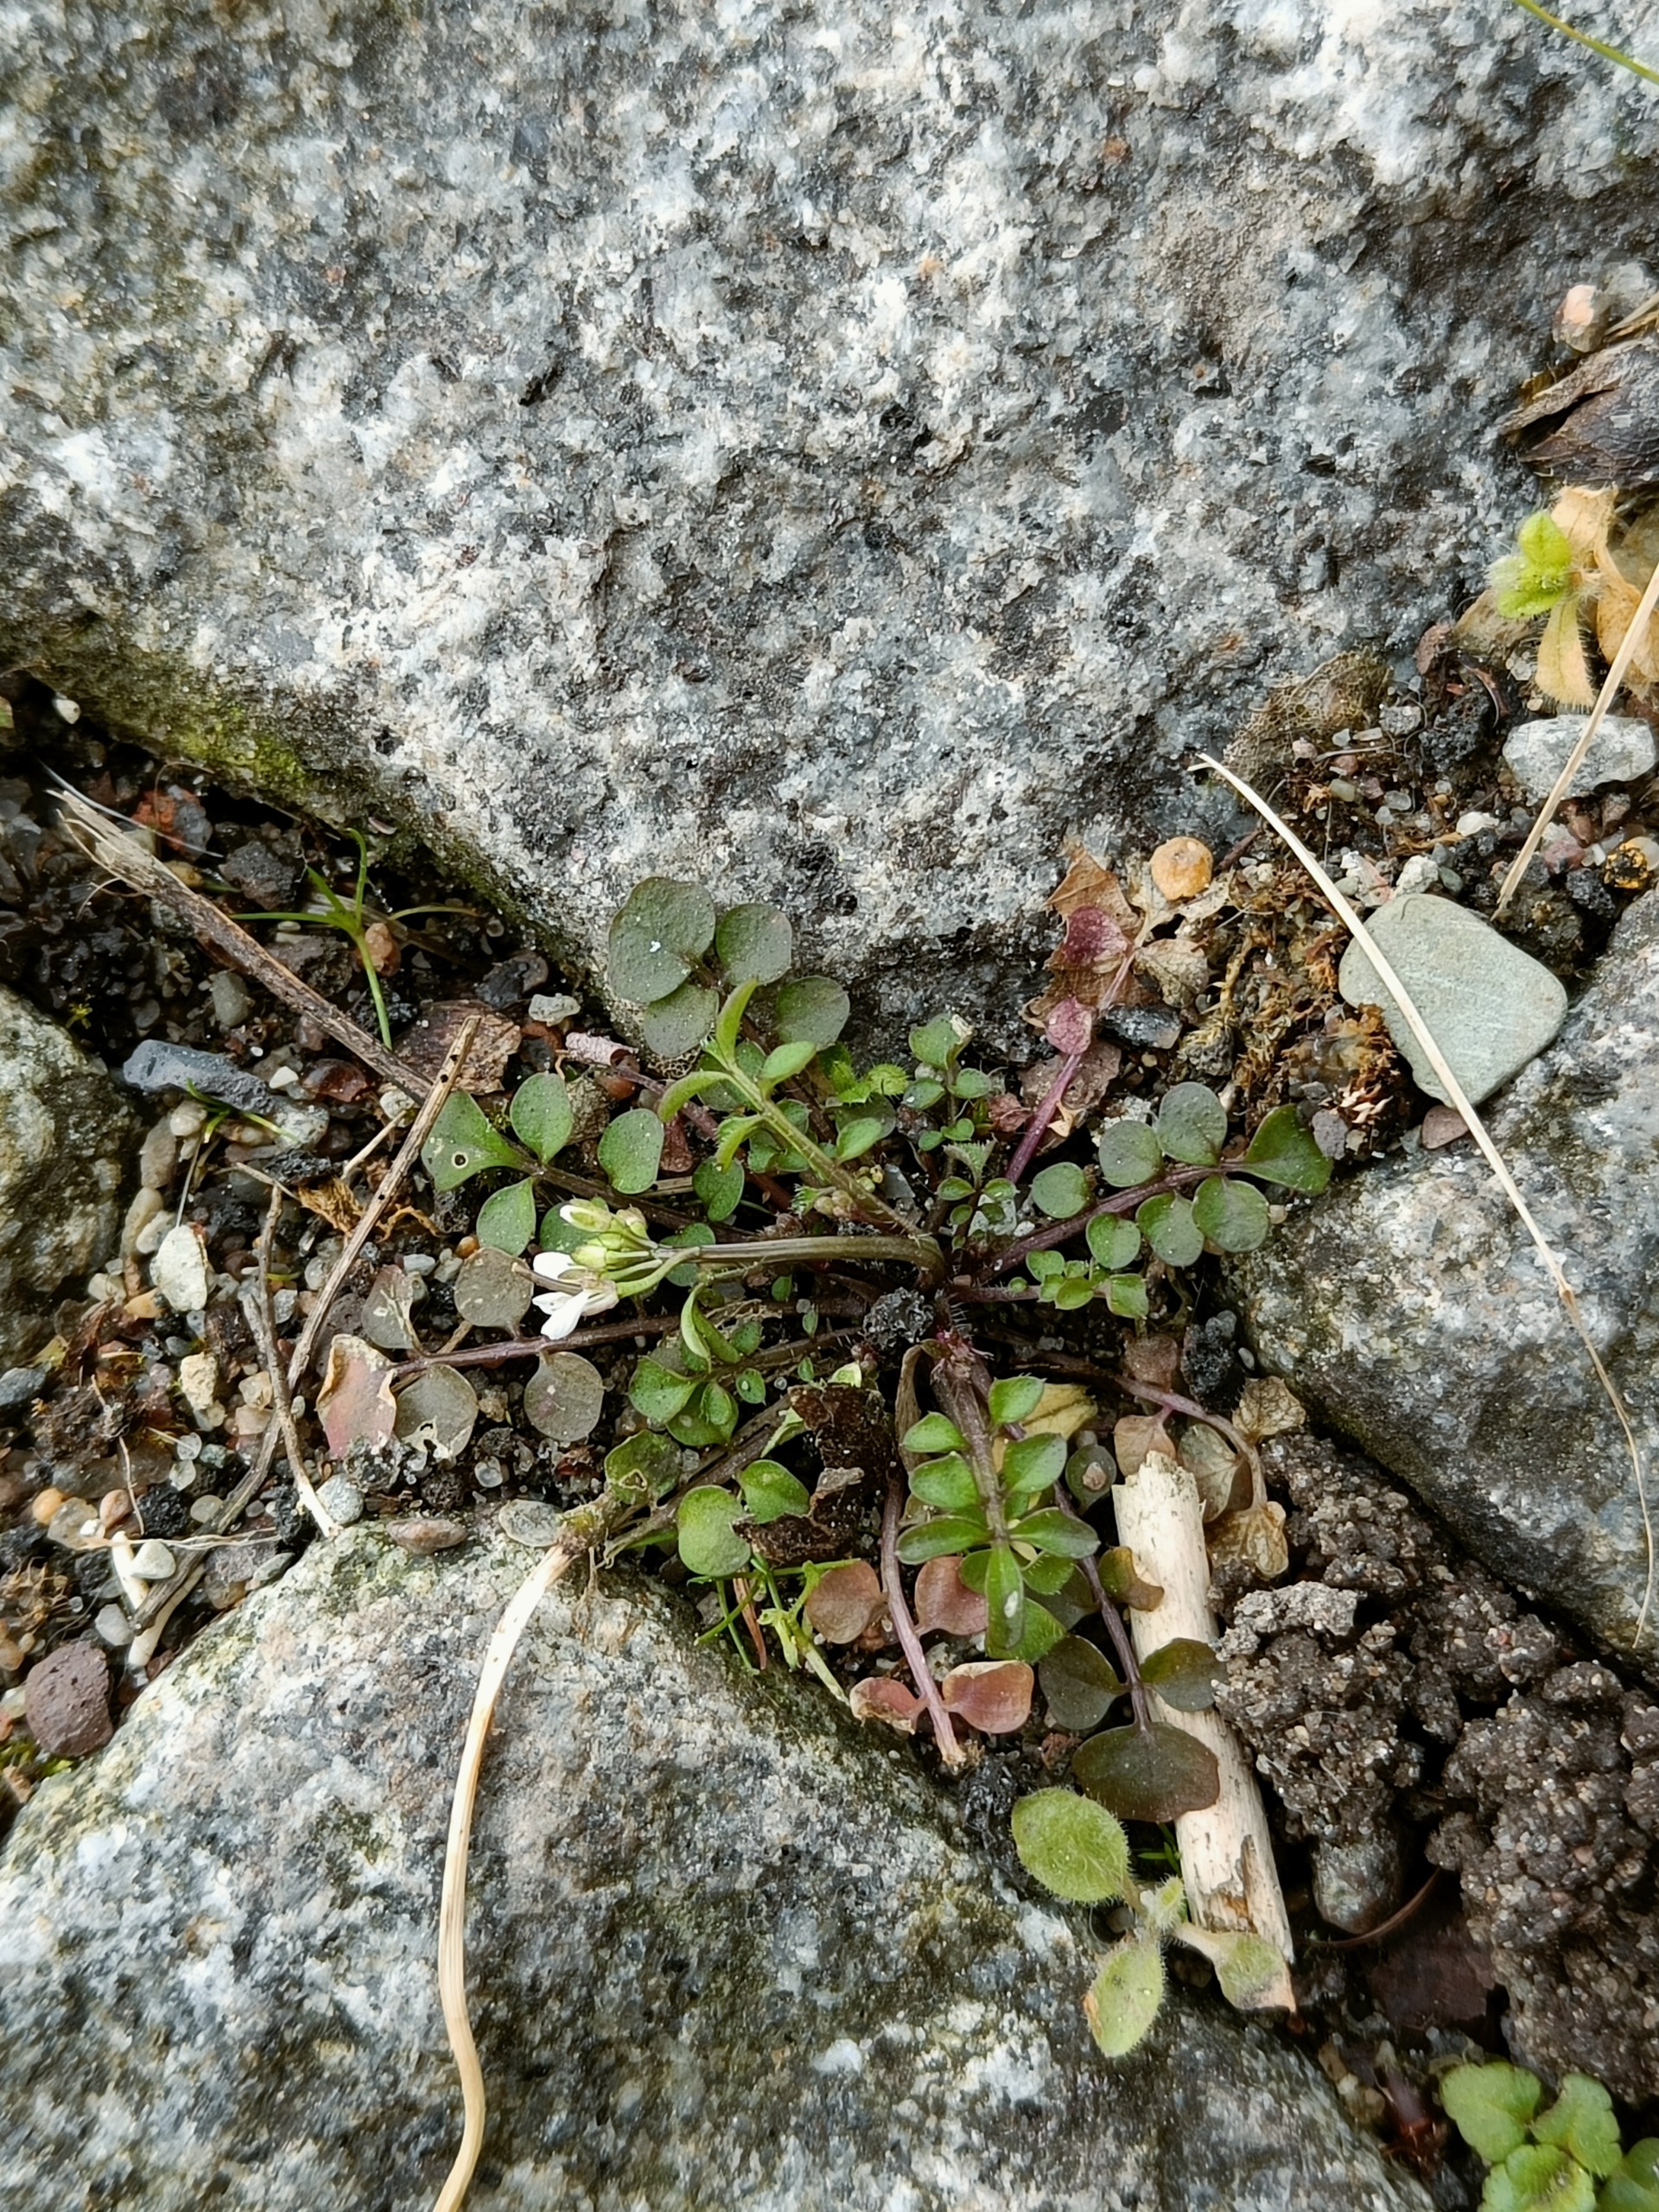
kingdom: Plantae
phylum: Tracheophyta
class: Magnoliopsida
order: Brassicales
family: Brassicaceae
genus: Cardamine
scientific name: Cardamine hirsuta
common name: Roset-springklap
